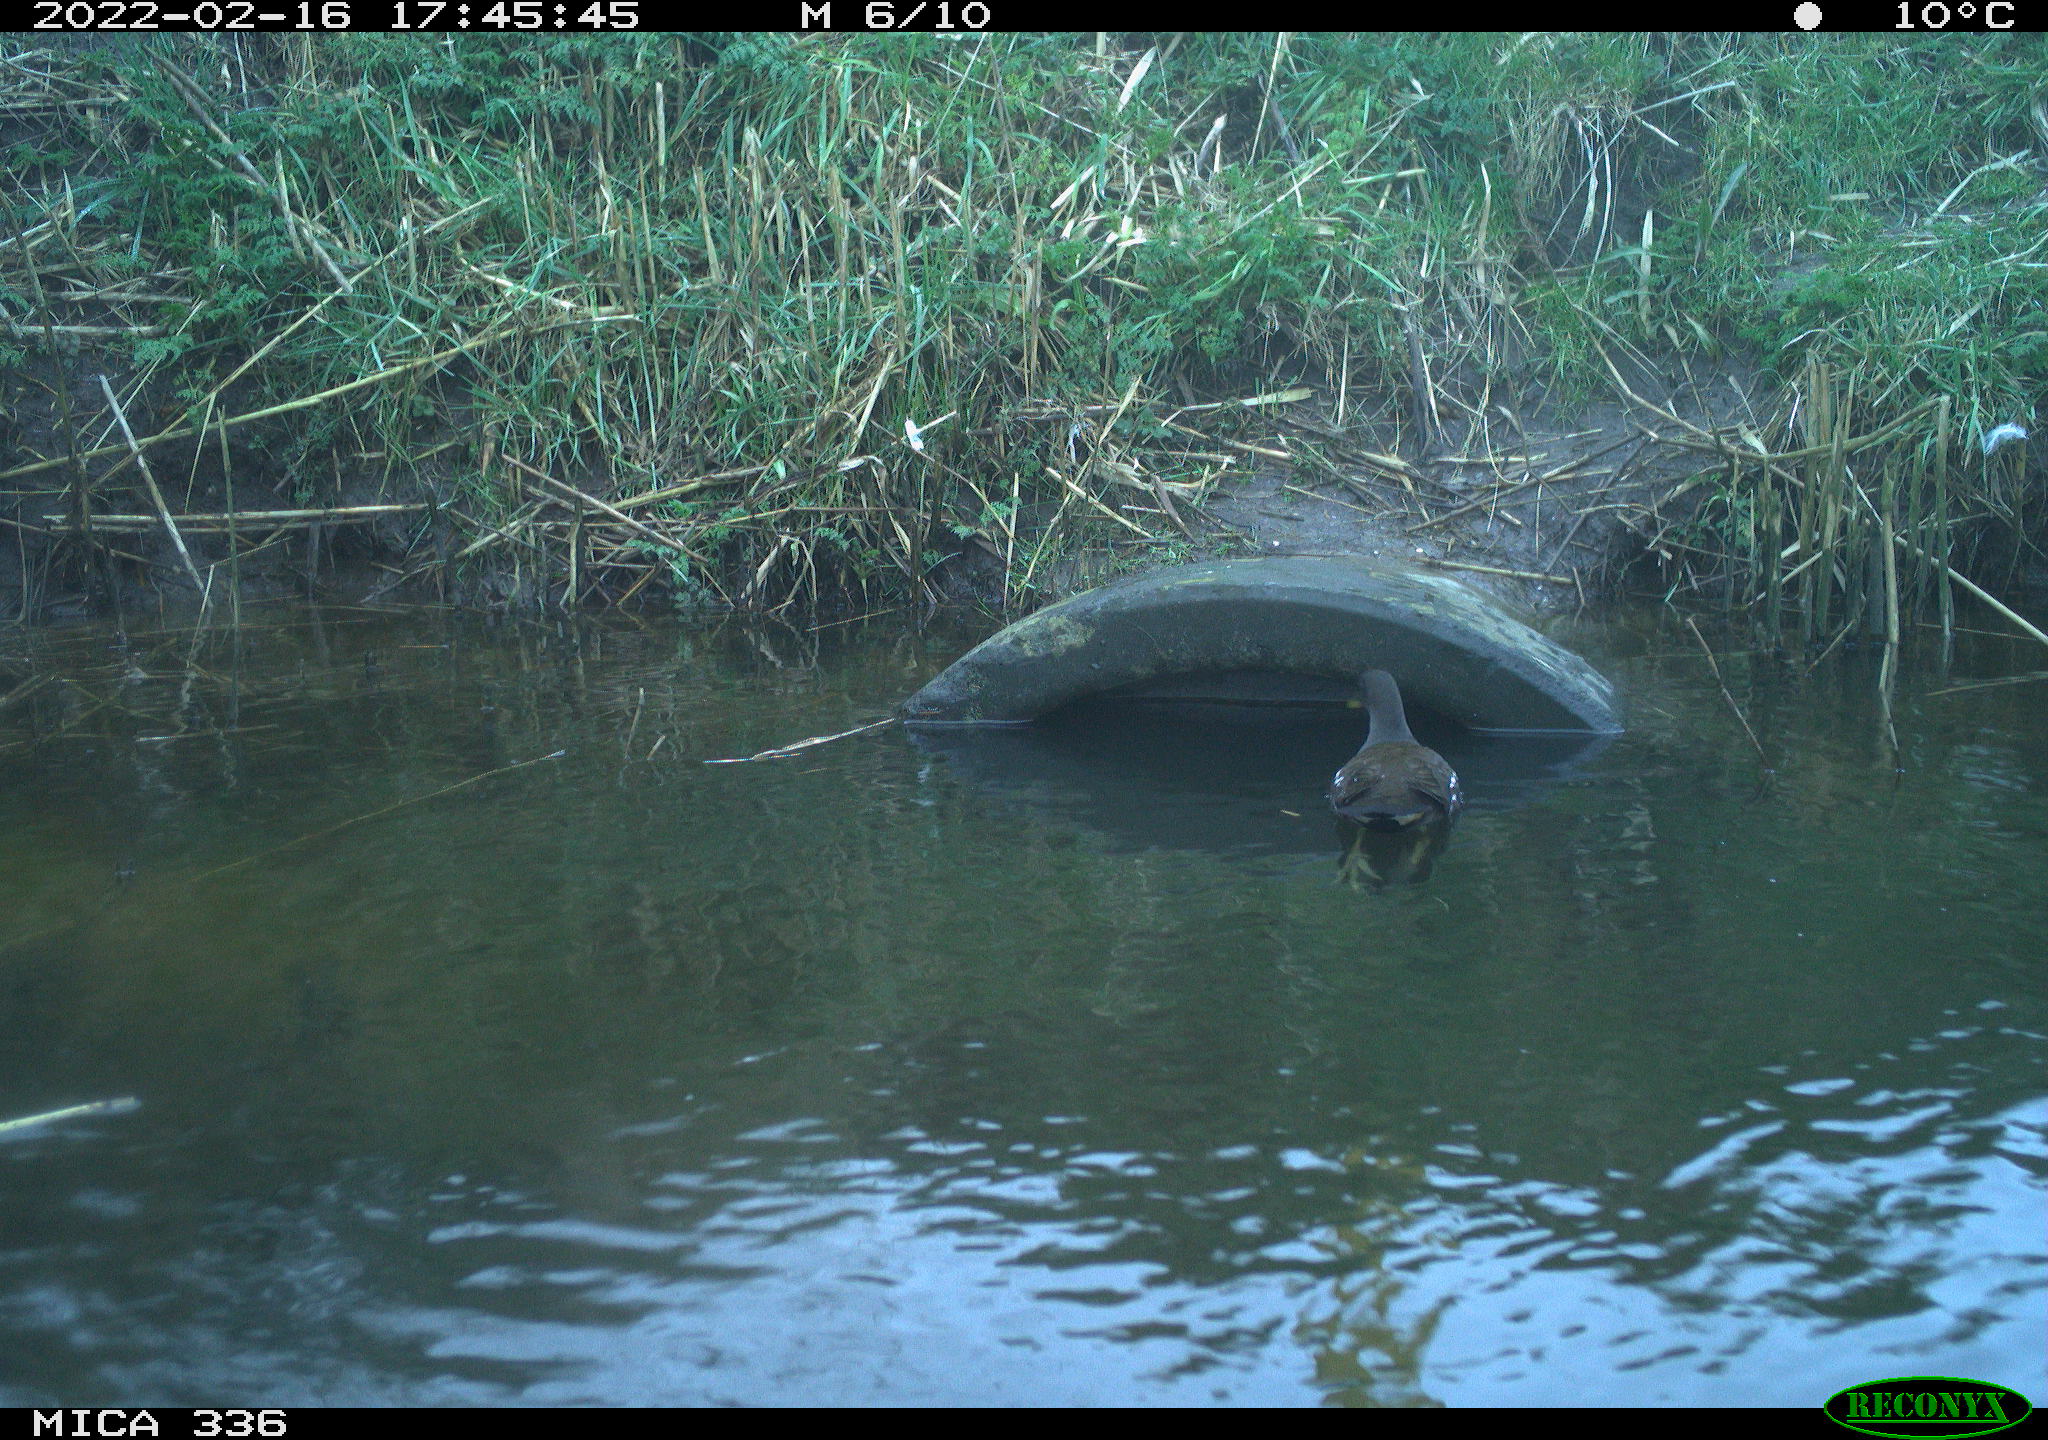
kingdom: Animalia
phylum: Chordata
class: Aves
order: Gruiformes
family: Rallidae
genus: Gallinula
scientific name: Gallinula chloropus
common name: Common moorhen
